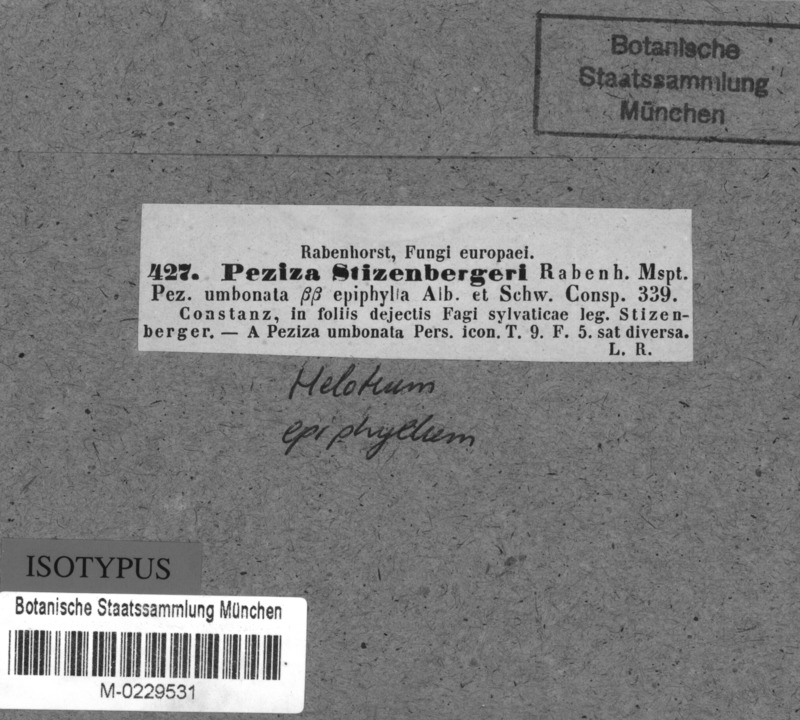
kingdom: Fungi
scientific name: Fungi
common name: Fungi
